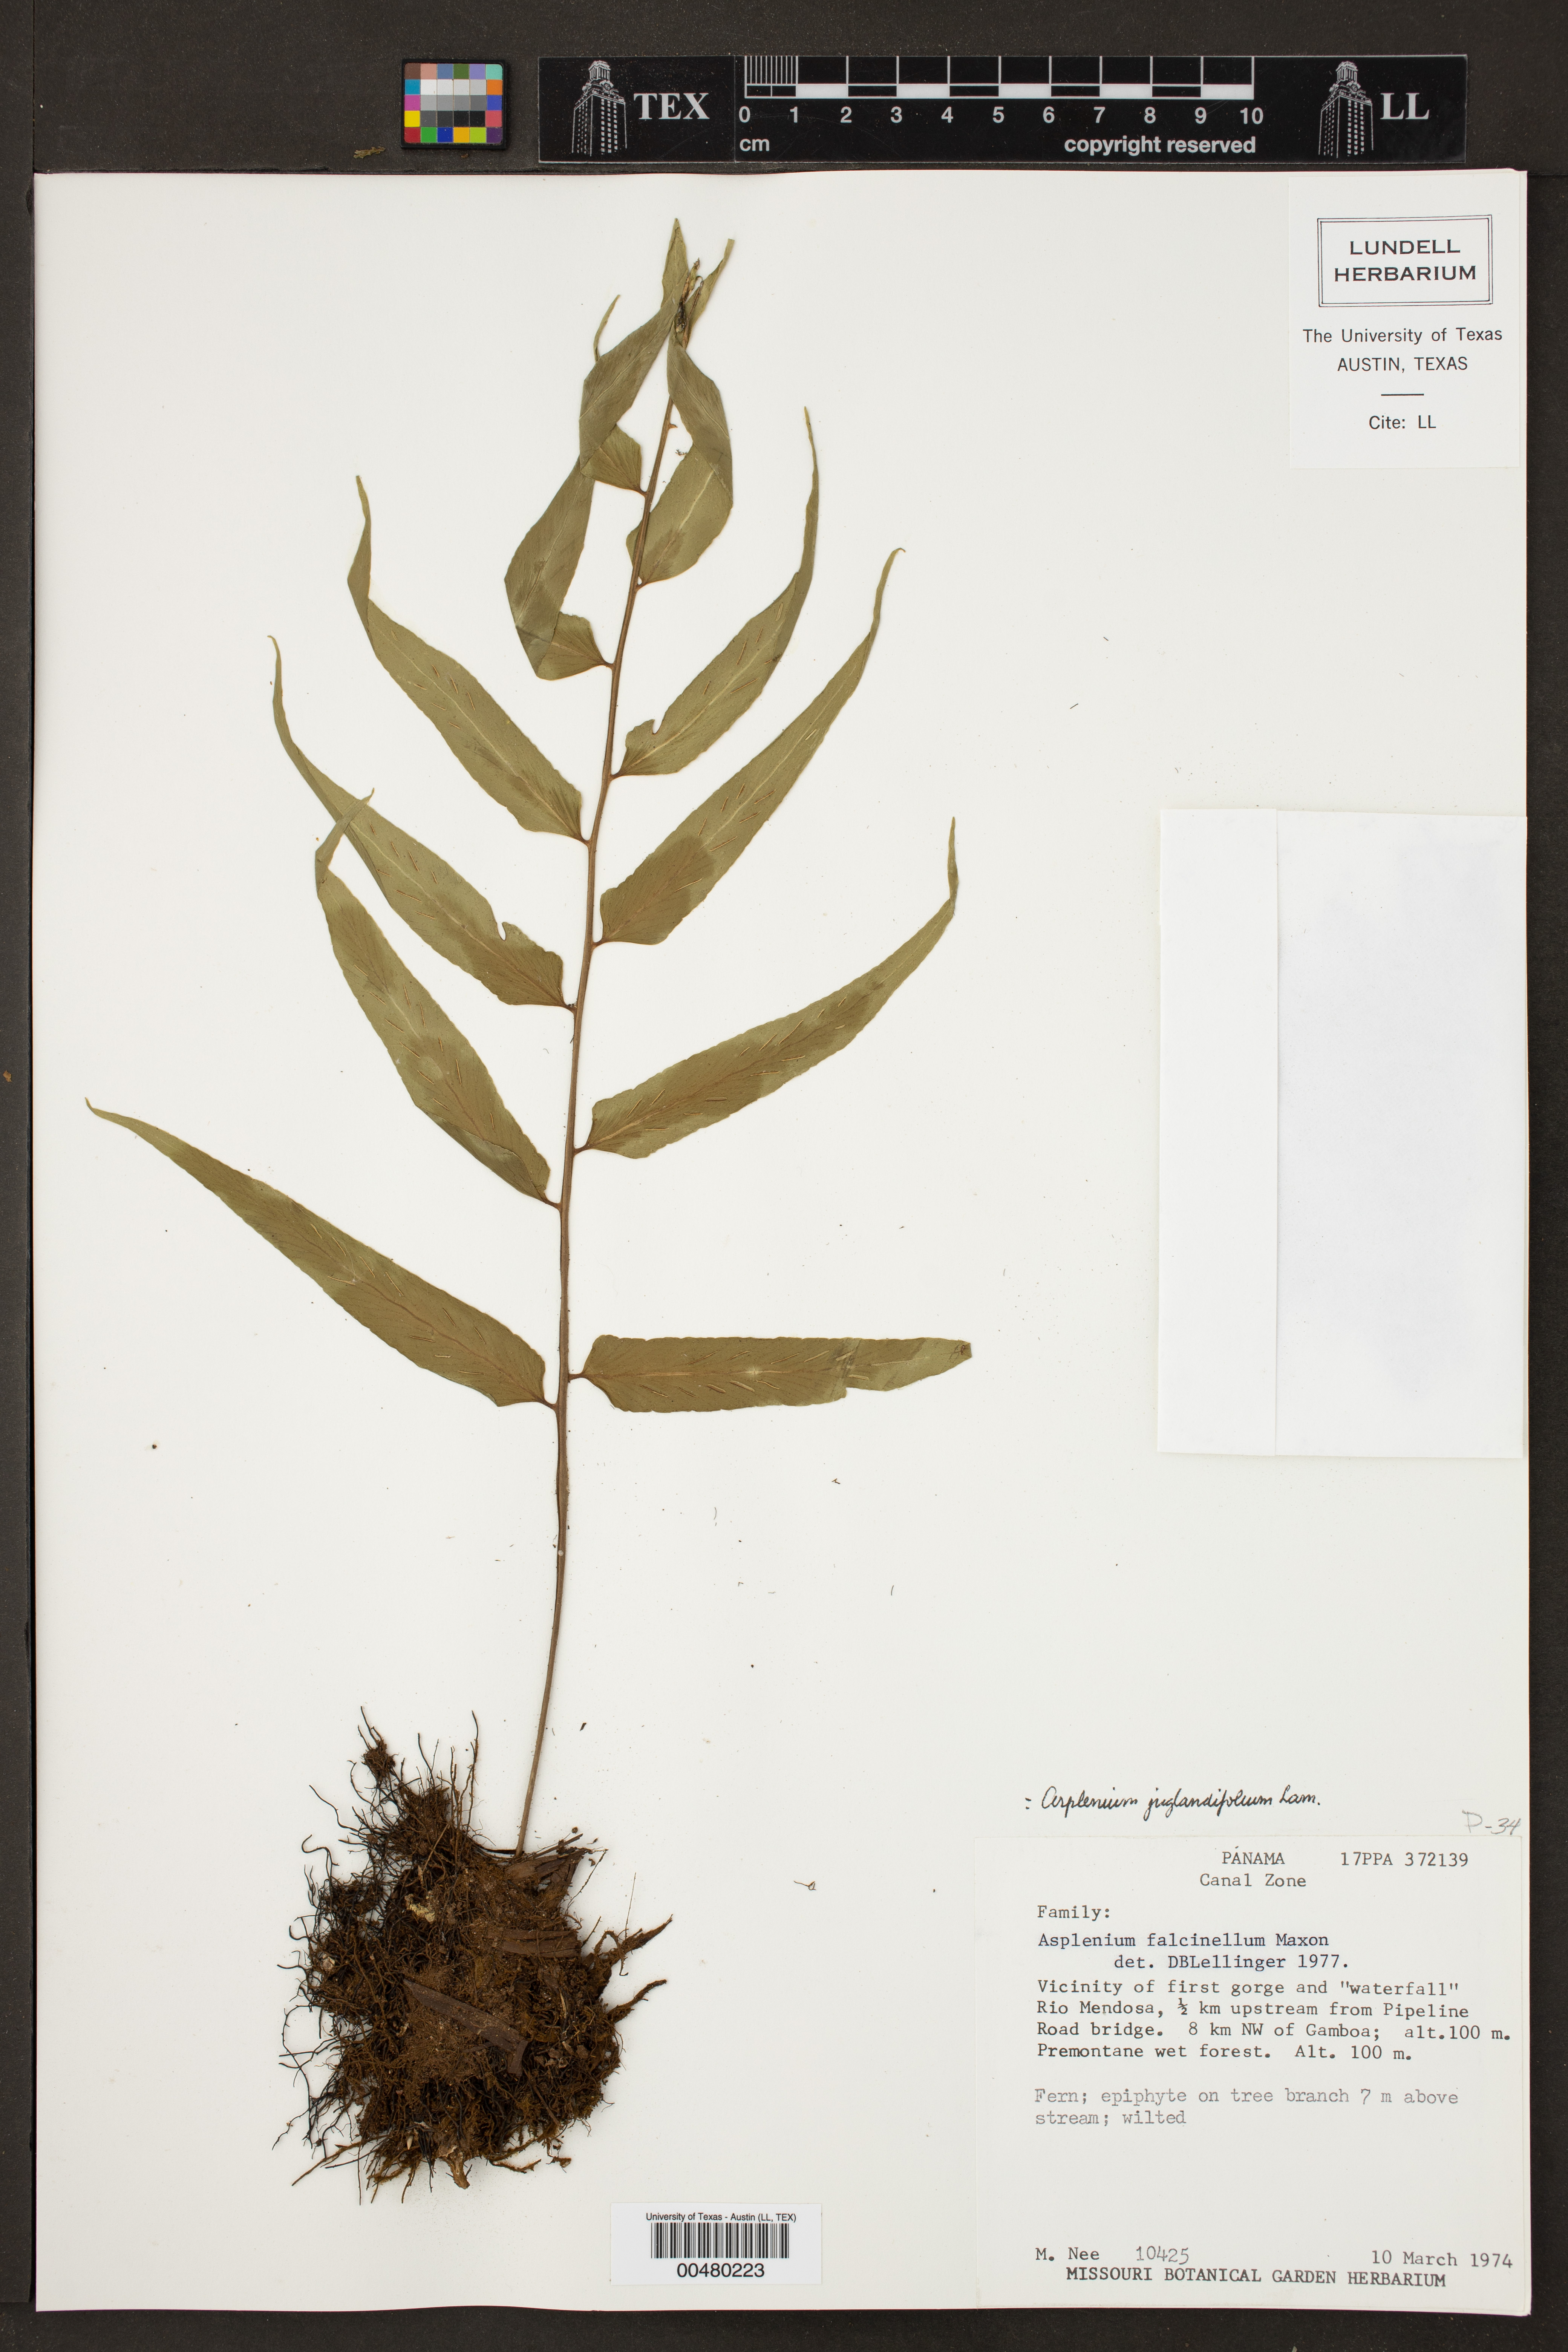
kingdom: Plantae
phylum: Tracheophyta
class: Polypodiopsida
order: Polypodiales
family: Aspleniaceae
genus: Asplenium
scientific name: Asplenium juglandifolium
